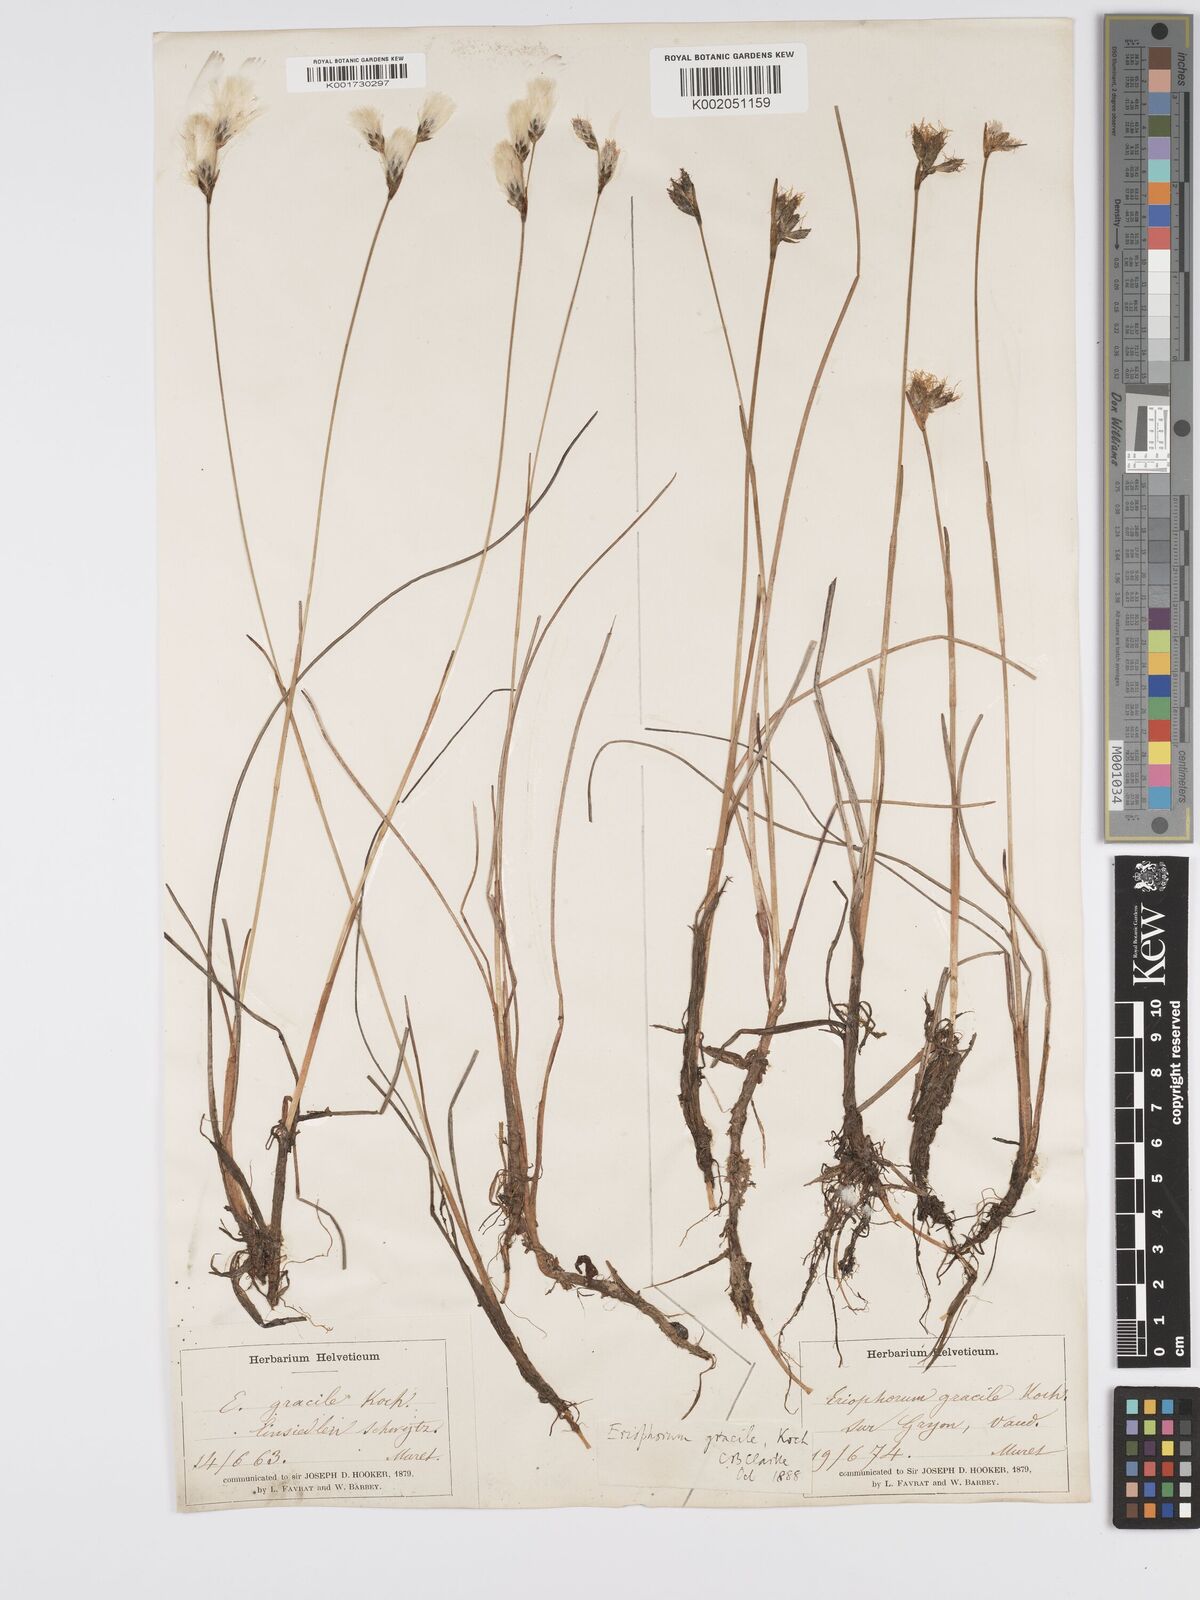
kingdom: Plantae
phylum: Tracheophyta
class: Liliopsida
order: Poales
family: Cyperaceae
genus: Eriophorum
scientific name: Eriophorum gracile
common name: Slender cottongrass
